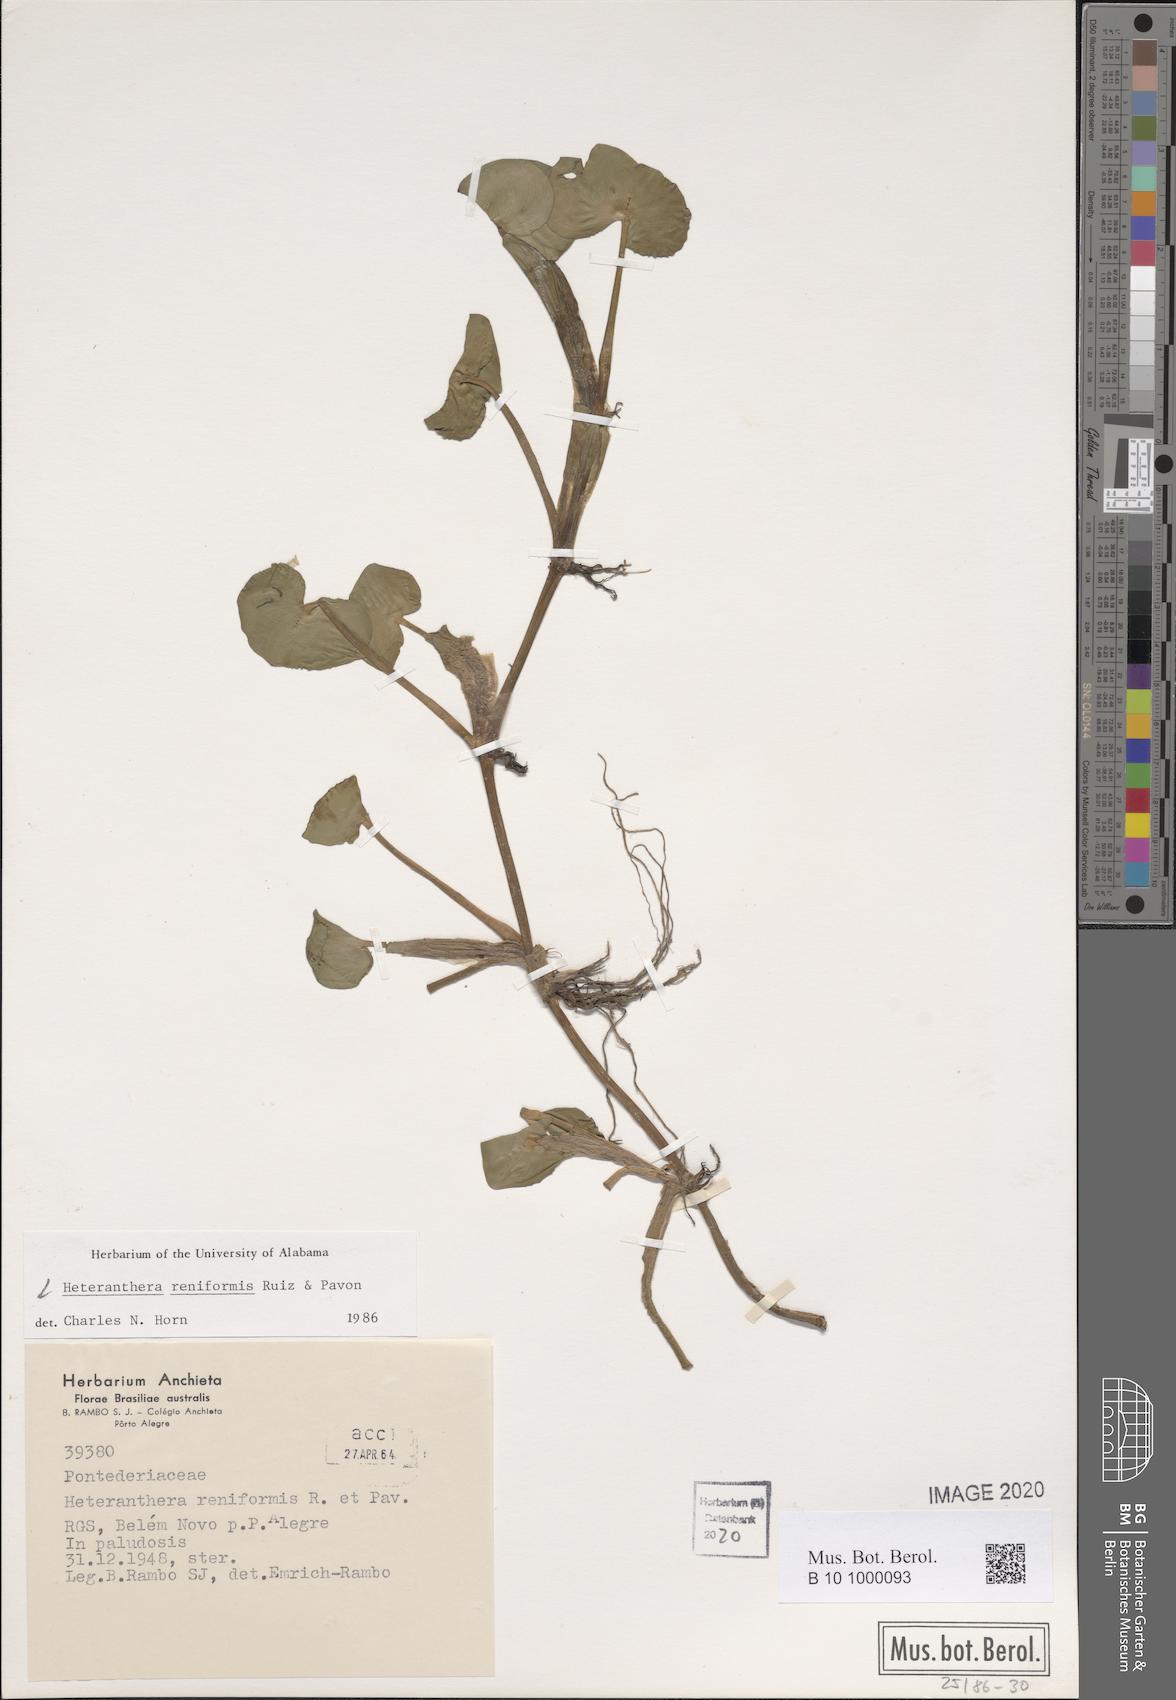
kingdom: Plantae
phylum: Tracheophyta
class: Liliopsida
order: Commelinales
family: Pontederiaceae
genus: Heteranthera
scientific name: Heteranthera reniformis
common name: Kidneyleaf mudplantain
